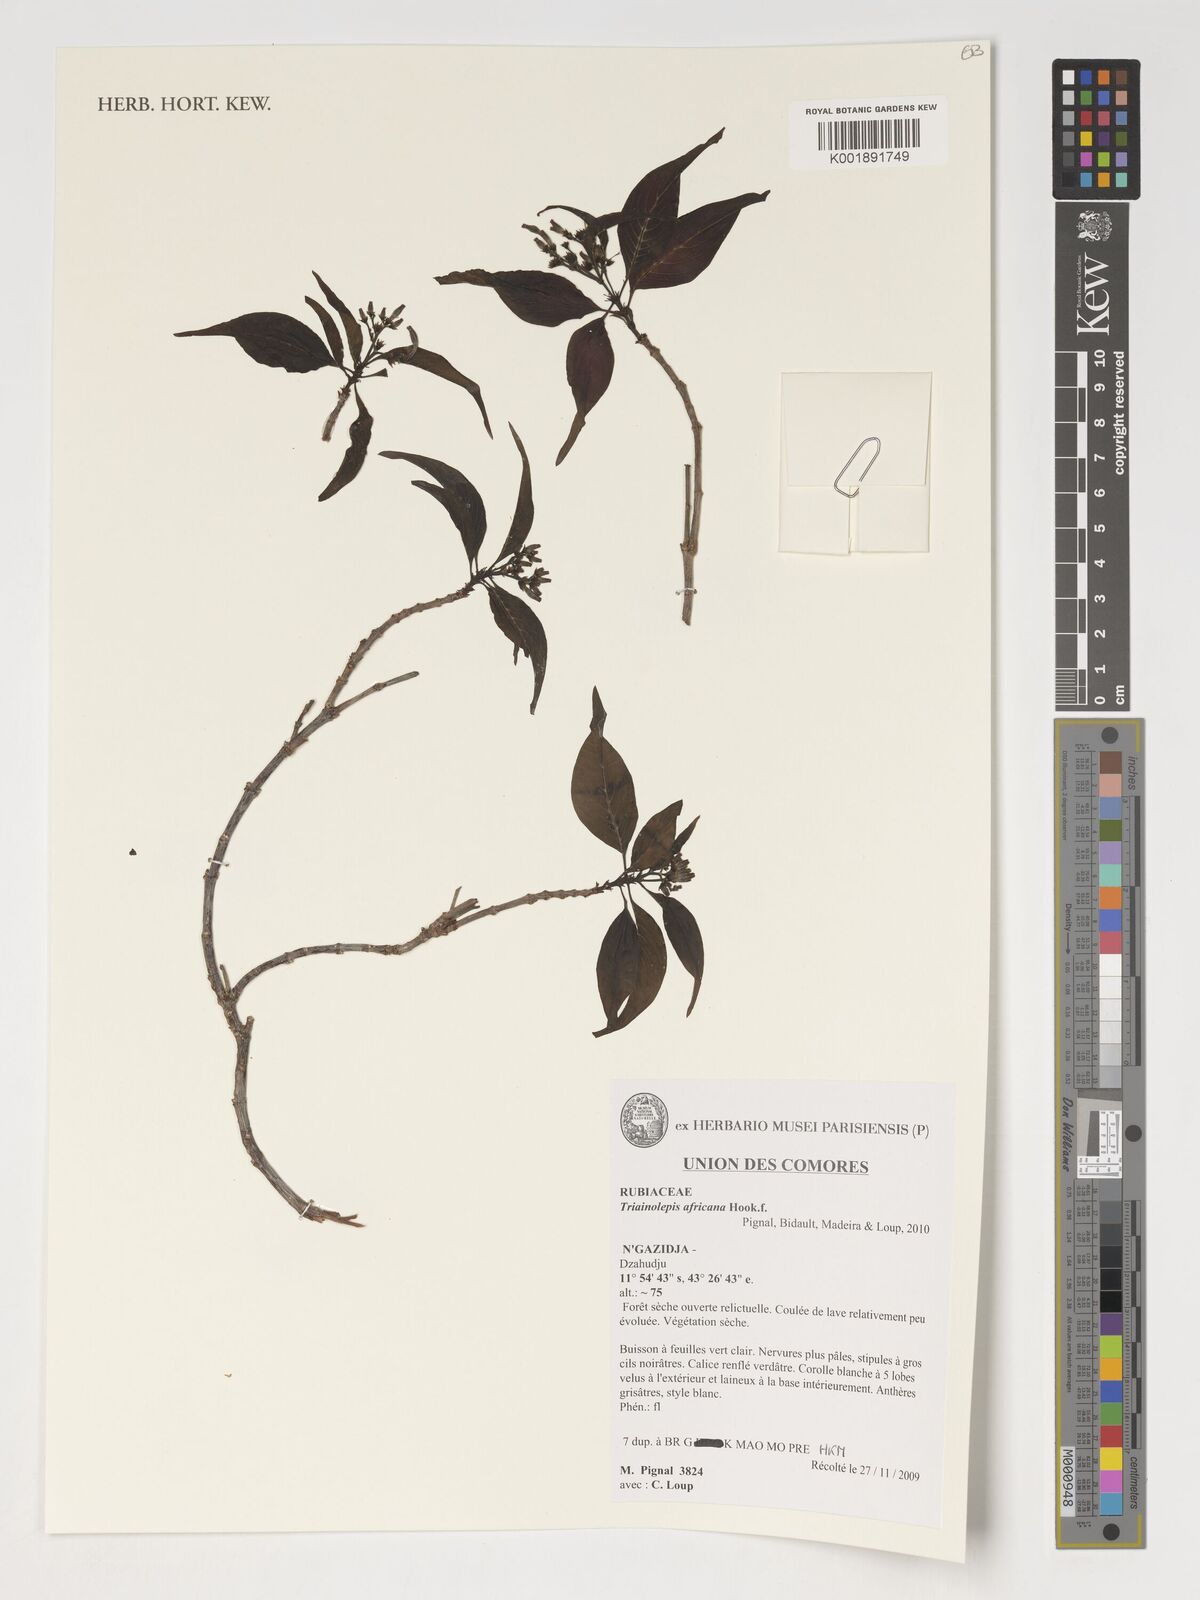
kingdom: Plantae
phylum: Tracheophyta
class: Magnoliopsida
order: Gentianales
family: Rubiaceae
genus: Triainolepis
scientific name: Triainolepis africana
